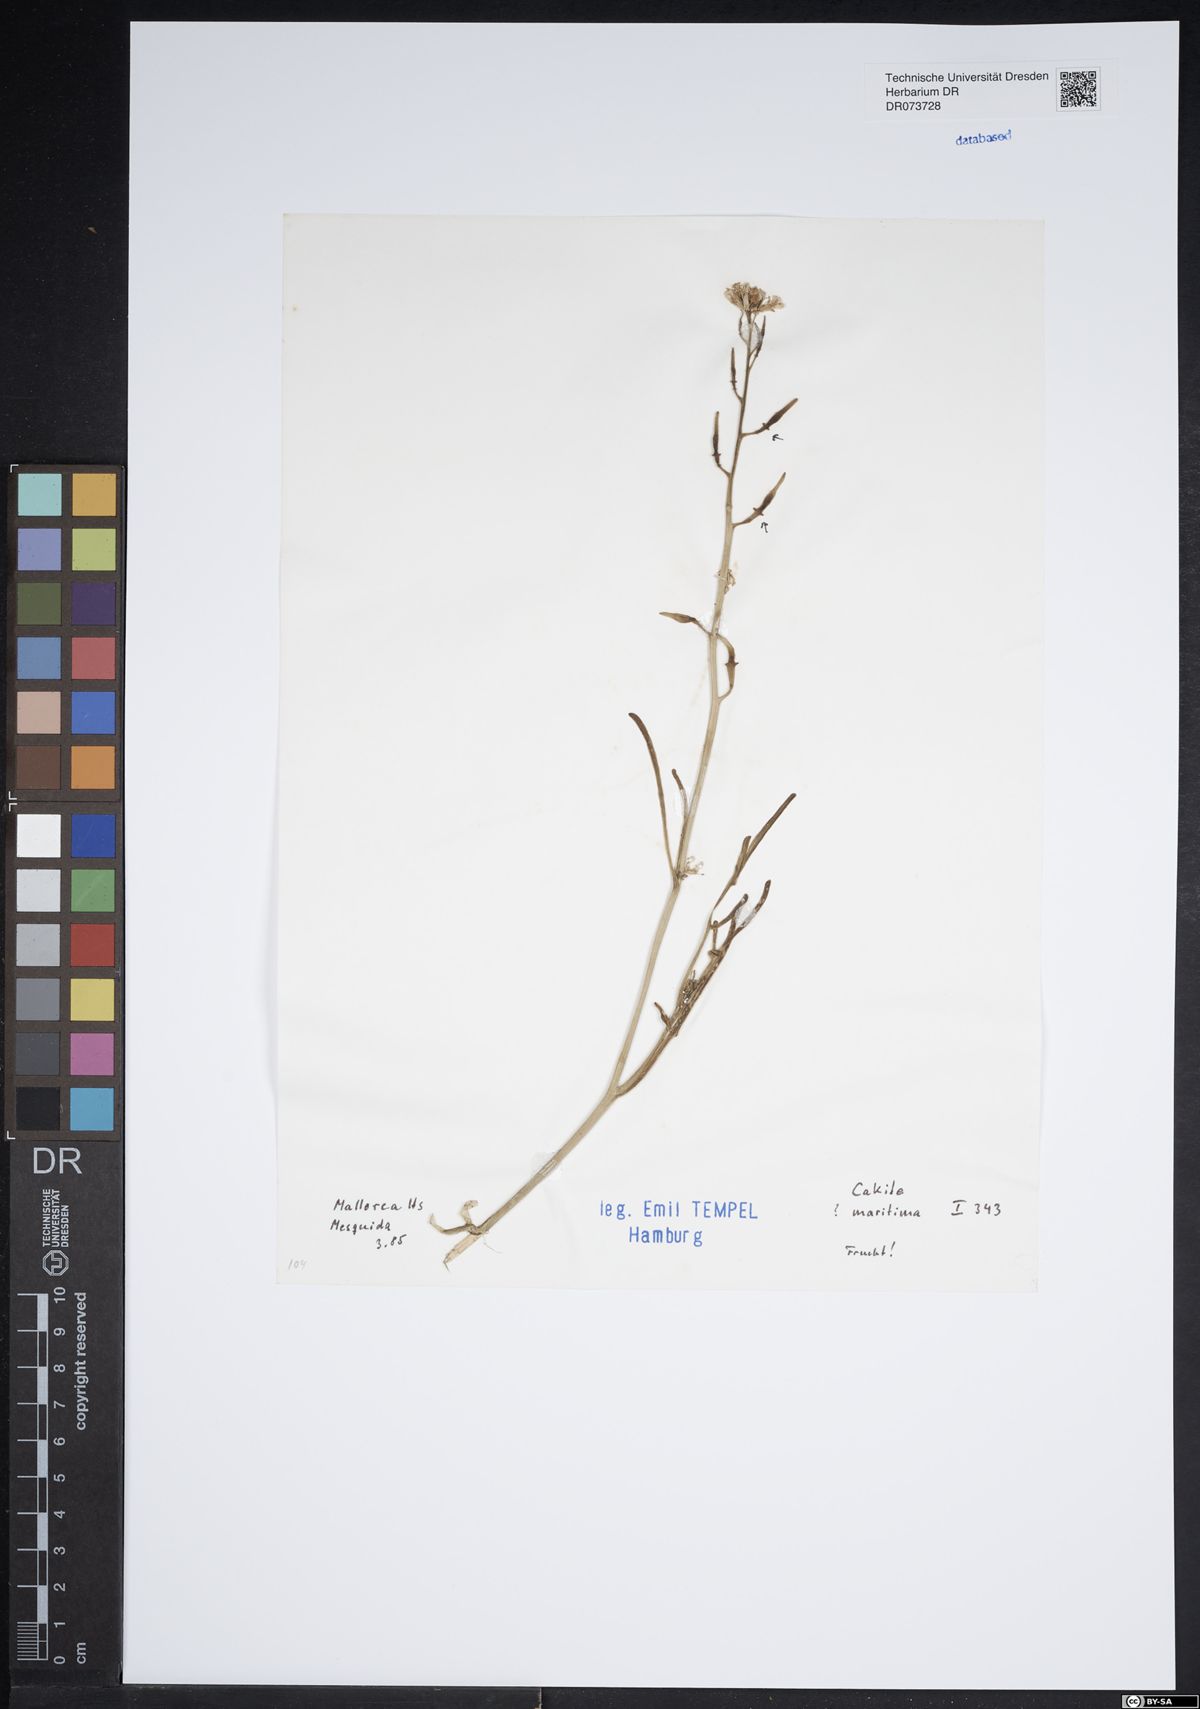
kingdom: Plantae
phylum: Tracheophyta
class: Magnoliopsida
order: Brassicales
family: Brassicaceae
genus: Cakile
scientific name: Cakile maritima
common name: Sea rocket
